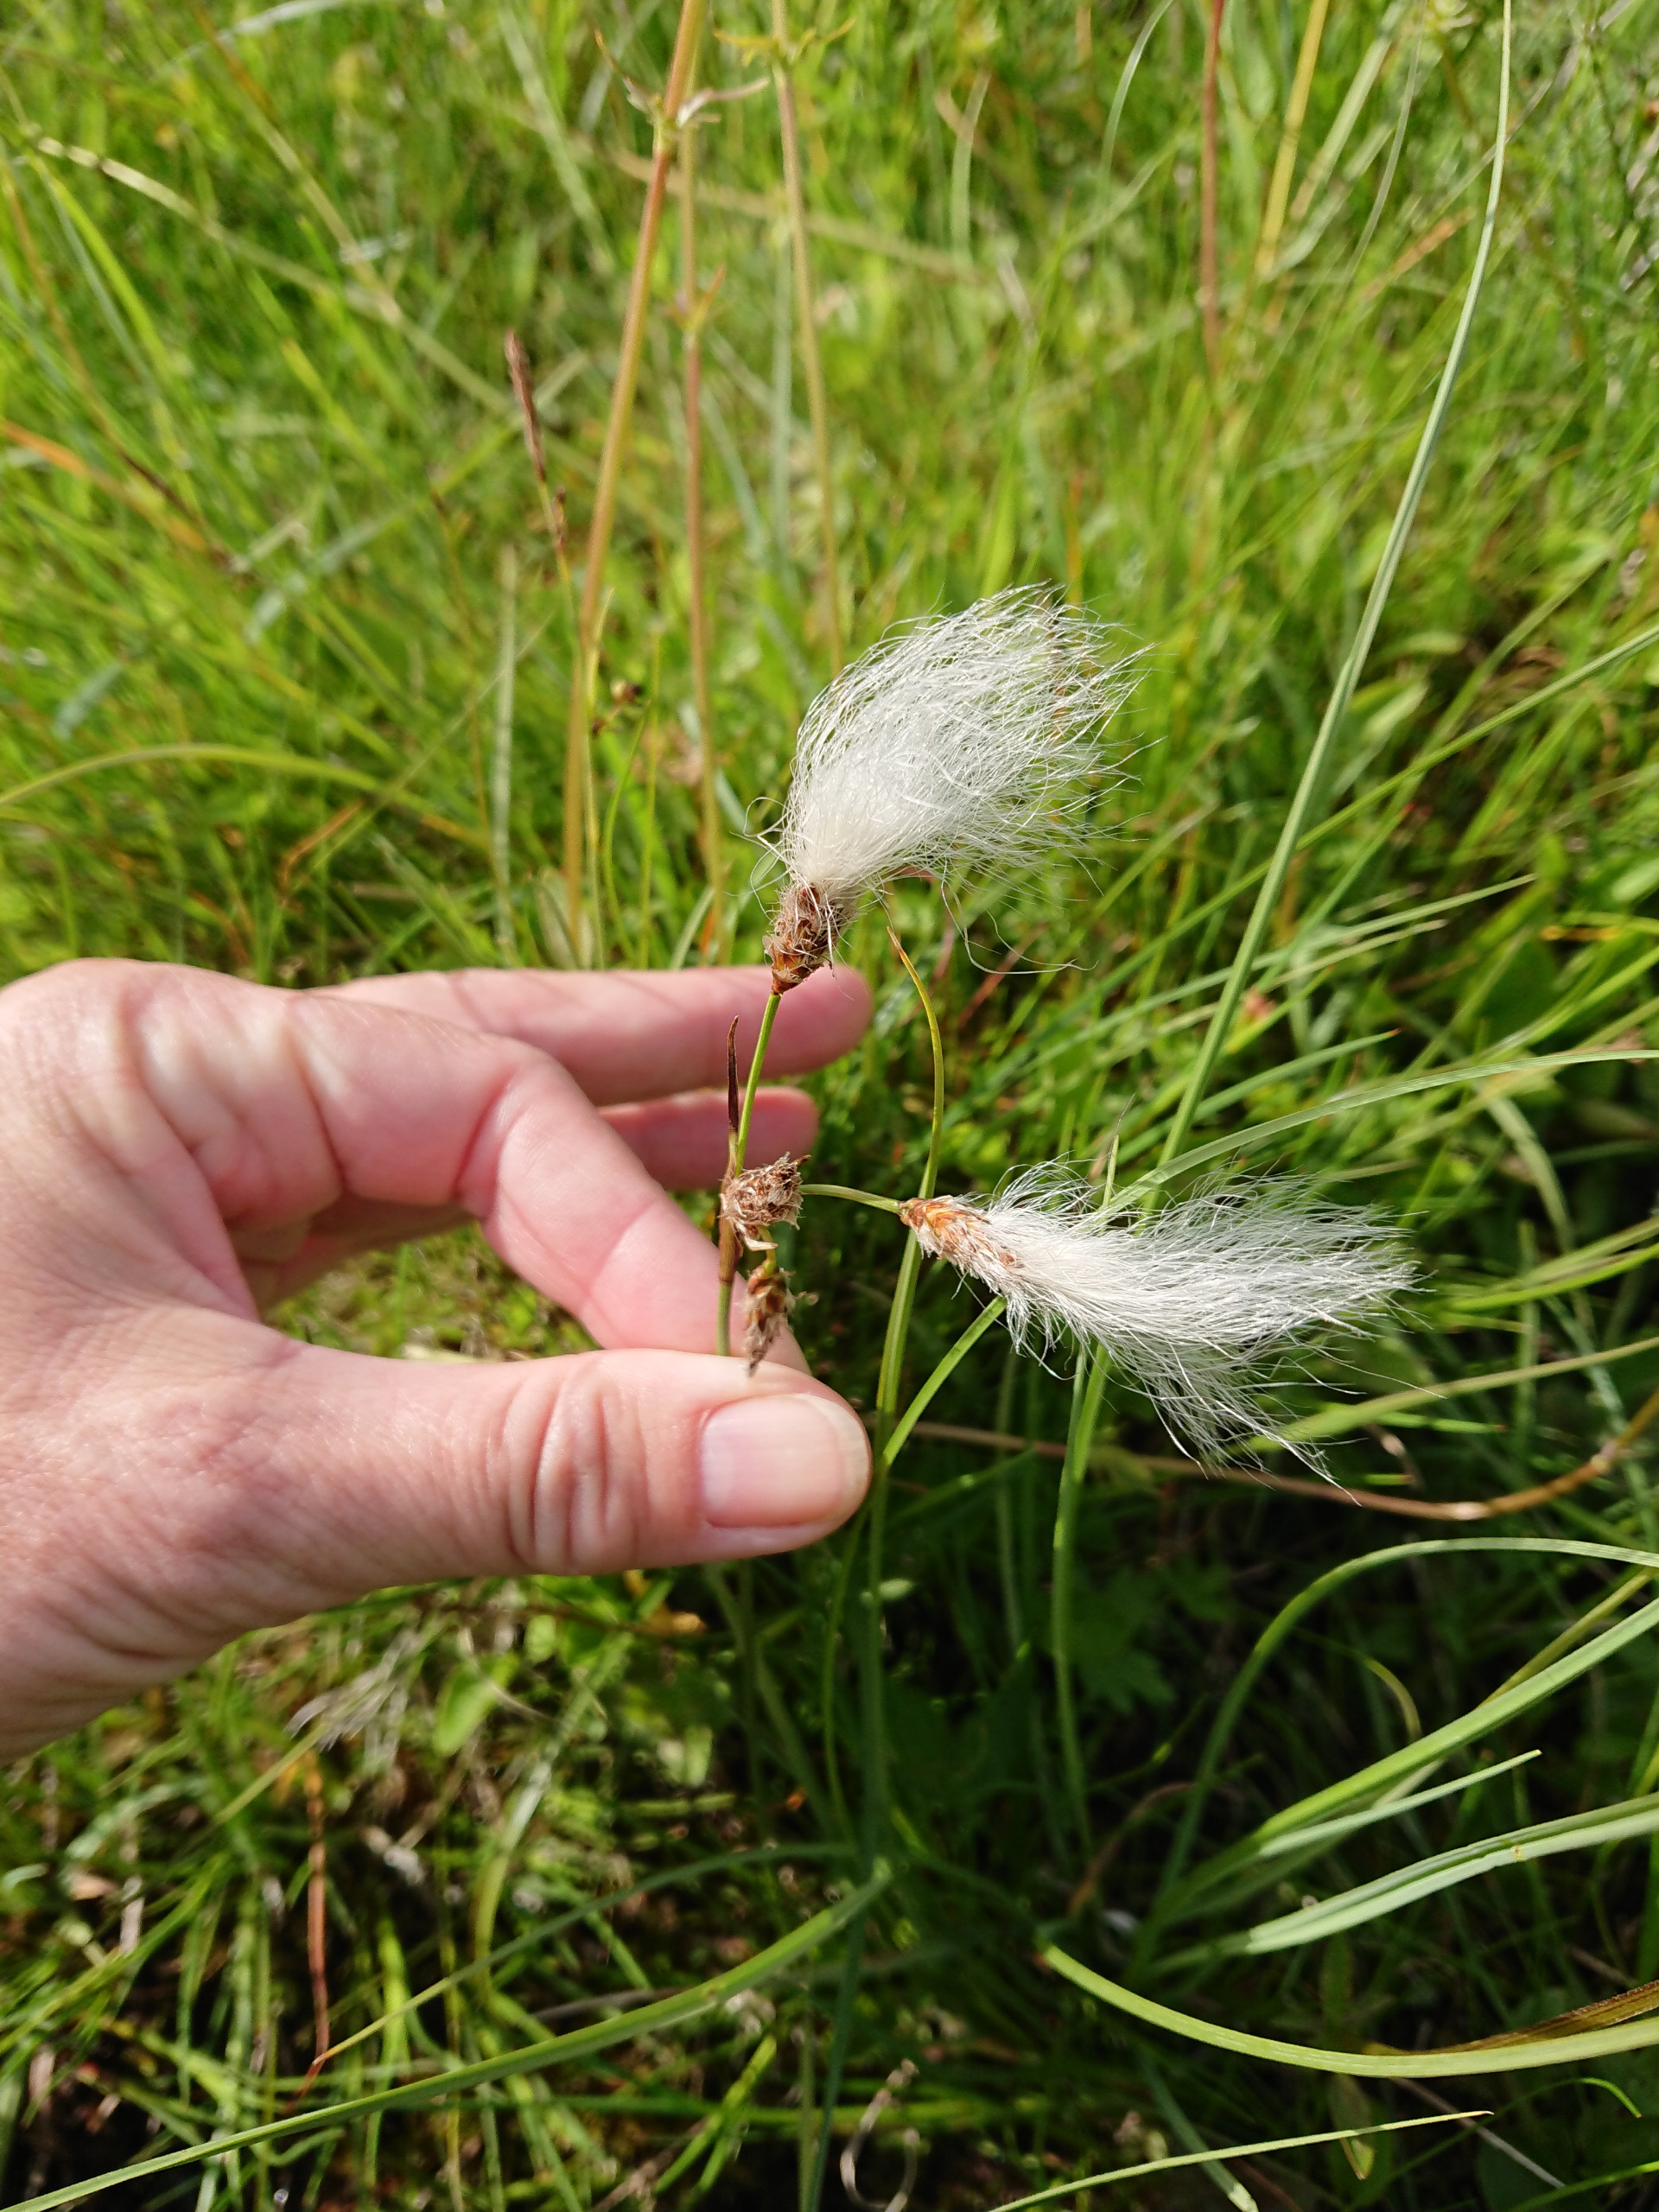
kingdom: Plantae
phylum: Tracheophyta
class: Liliopsida
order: Poales
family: Cyperaceae
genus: Eriophorum
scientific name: Eriophorum angustifolium
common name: Smalbladet kæruld
